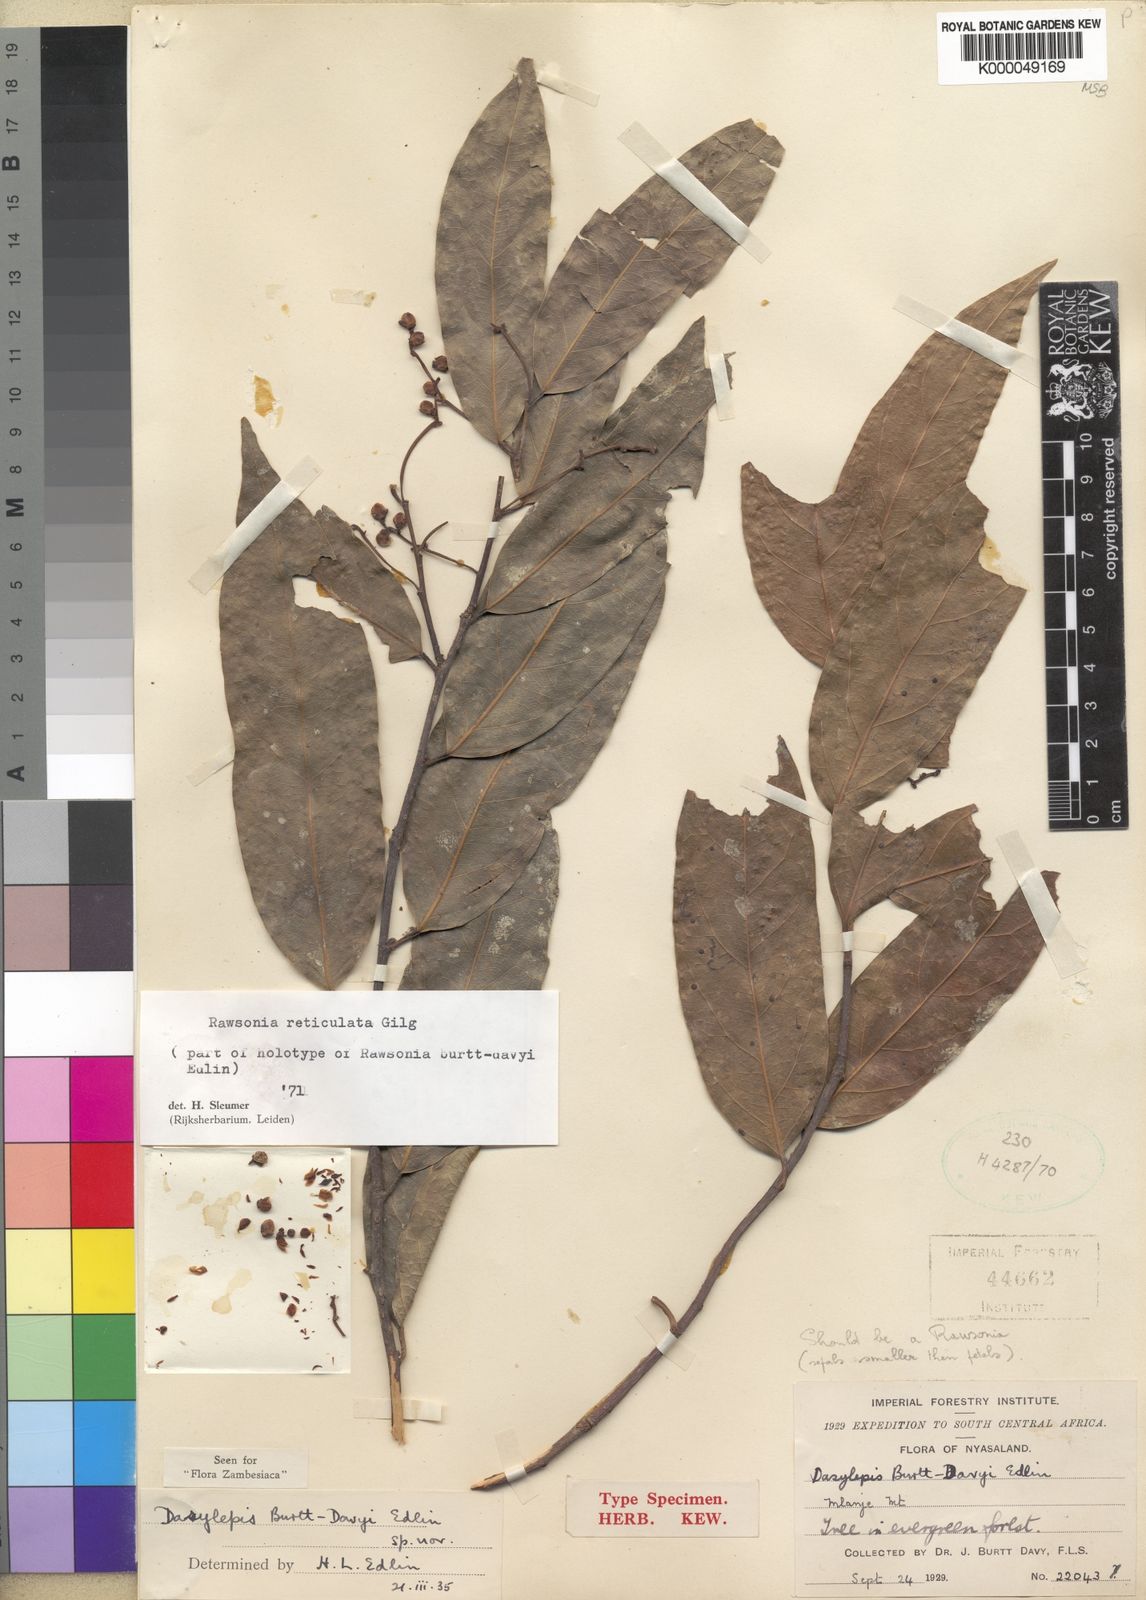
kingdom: Plantae
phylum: Tracheophyta
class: Magnoliopsida
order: Malpighiales
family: Achariaceae
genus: Rawsonia
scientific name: Rawsonia burtt-davyi
